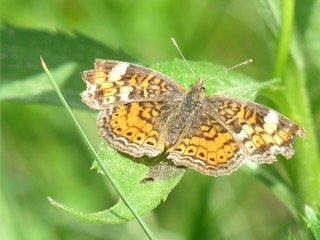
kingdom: Animalia
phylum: Arthropoda
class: Insecta
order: Lepidoptera
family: Nymphalidae
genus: Phyciodes
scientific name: Phyciodes tharos
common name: Pearl Crescent
